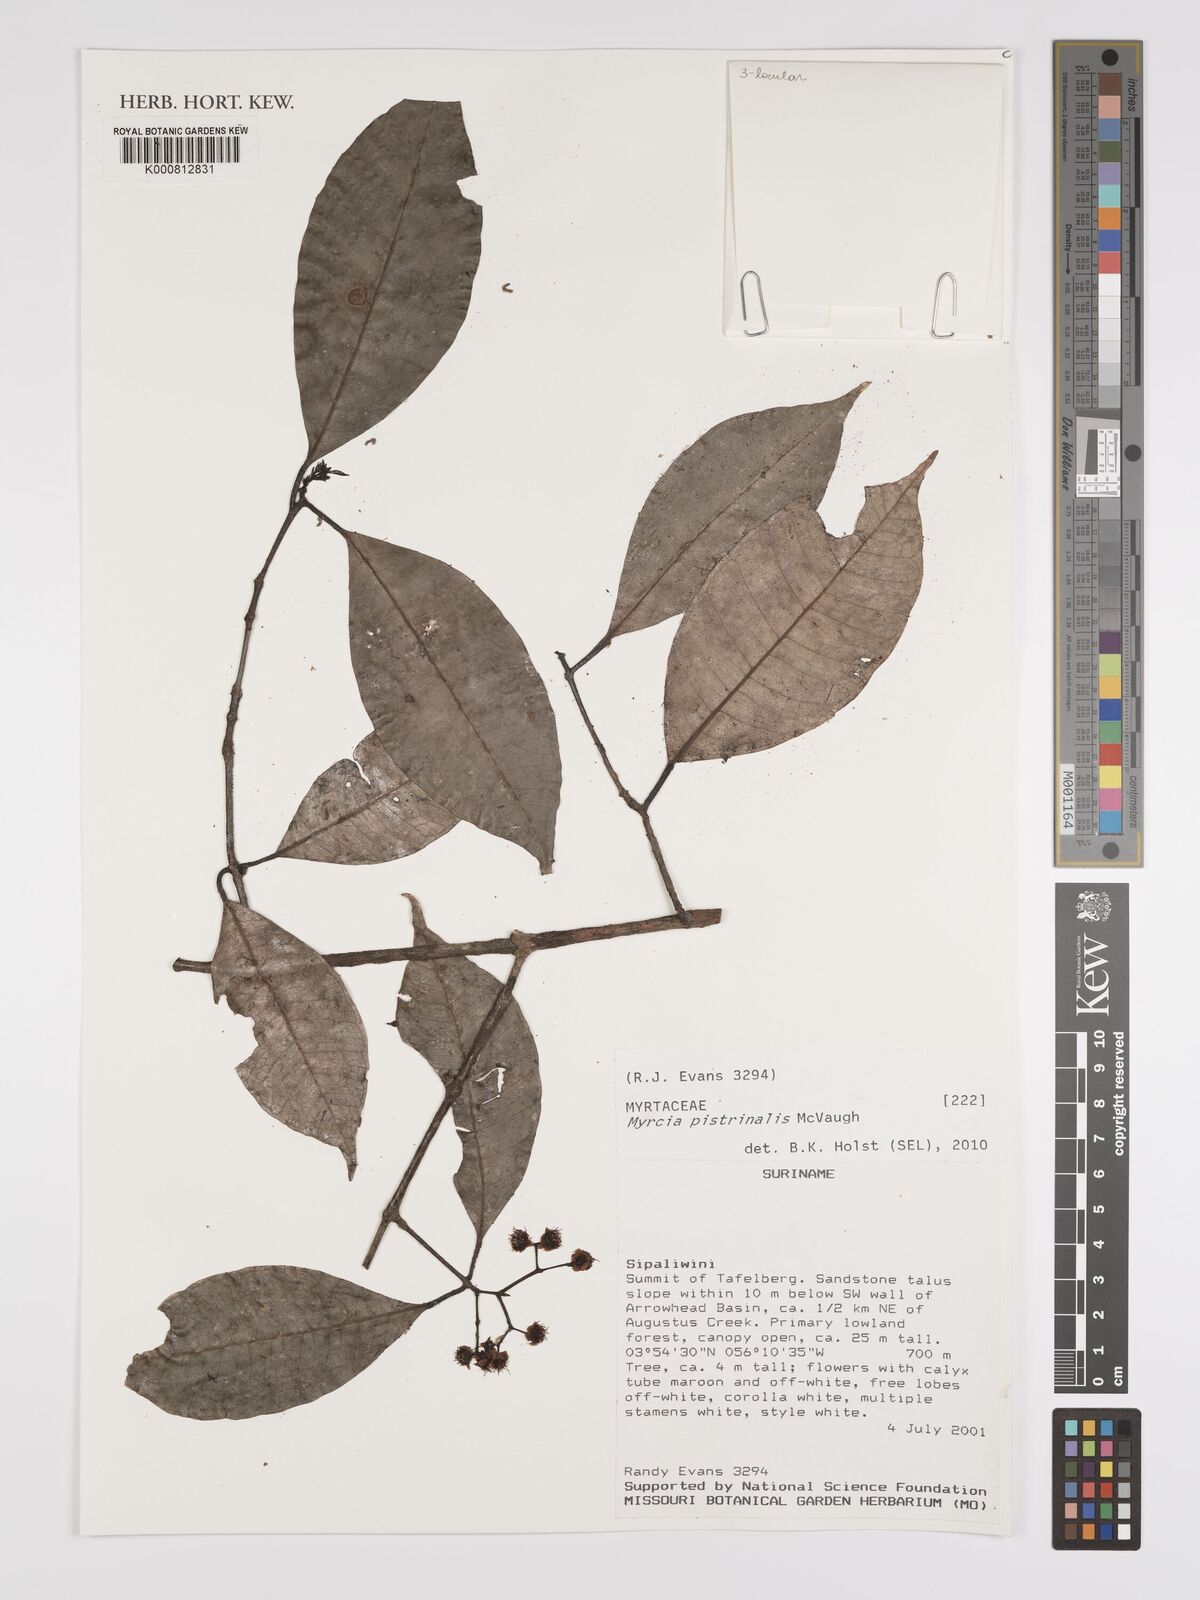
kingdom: Plantae
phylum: Tracheophyta
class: Magnoliopsida
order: Myrtales
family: Myrtaceae
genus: Myrcia
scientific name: Myrcia pistrinalis
